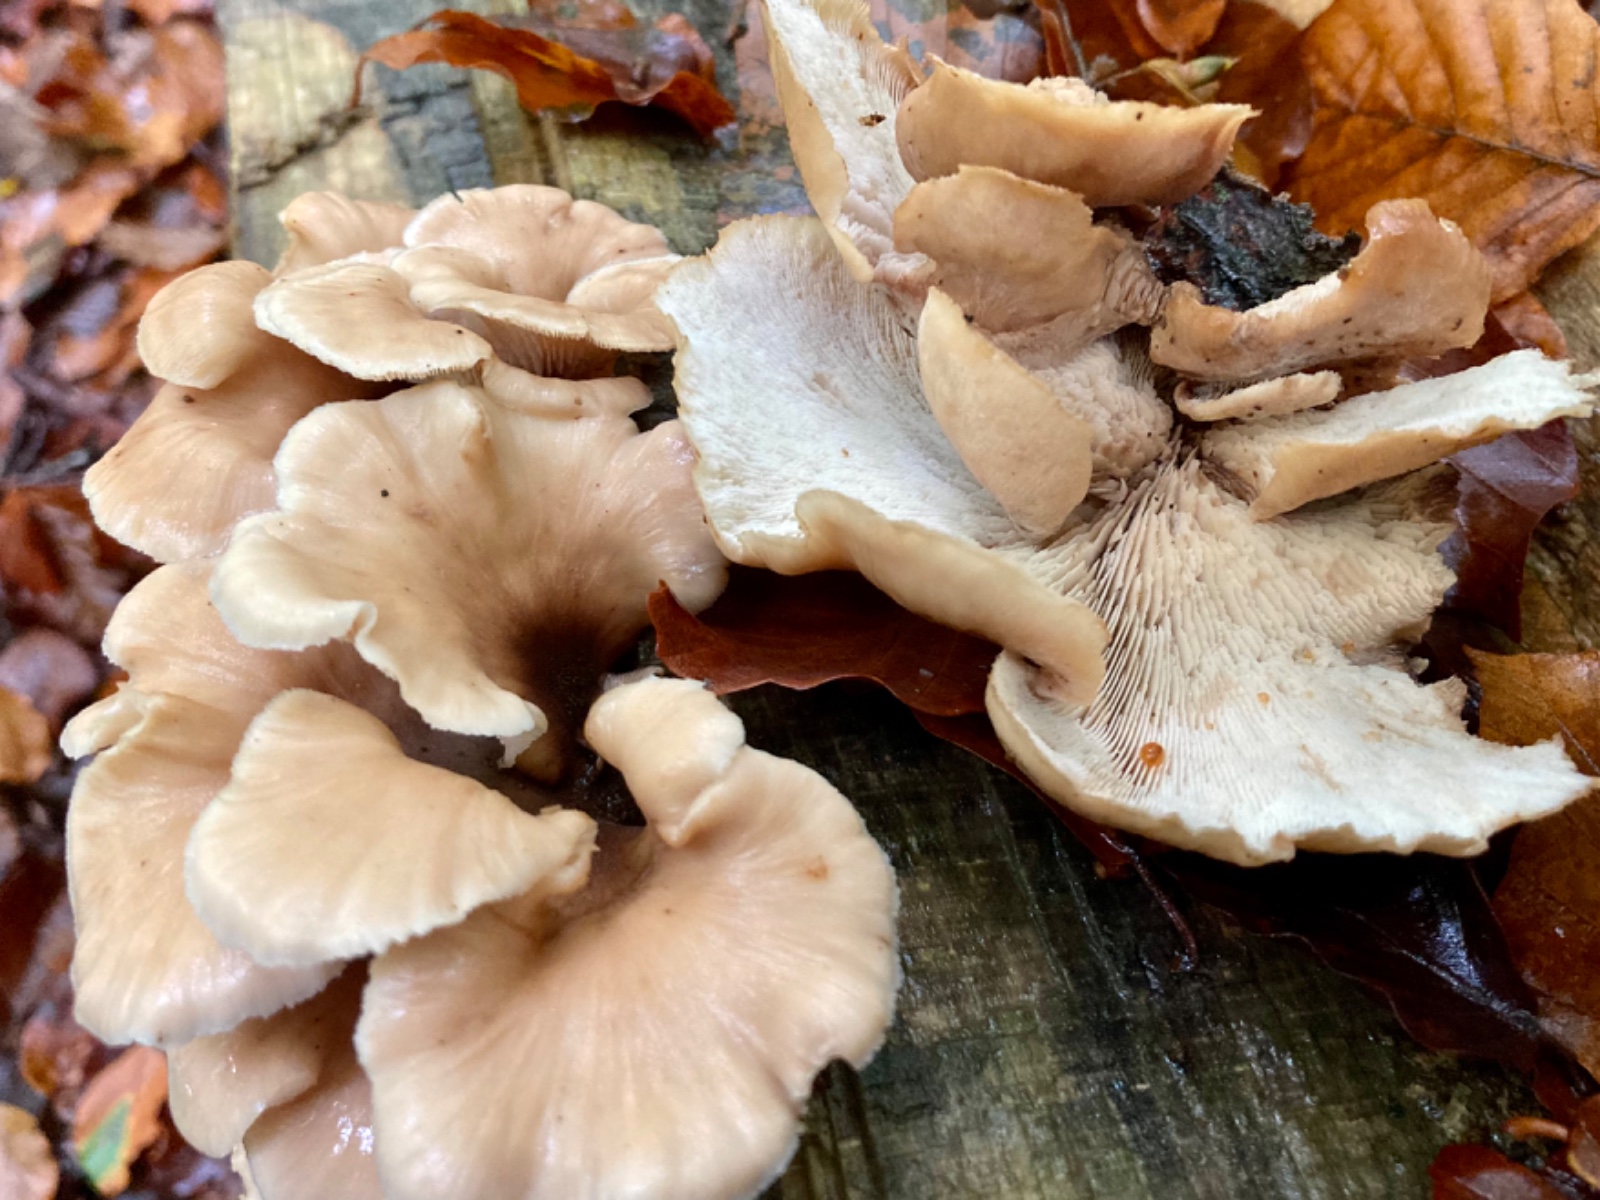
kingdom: Fungi
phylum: Basidiomycota
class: Agaricomycetes
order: Russulales
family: Auriscalpiaceae
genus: Lentinellus
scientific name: Lentinellus ursinus
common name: børstehåret savbladhat
